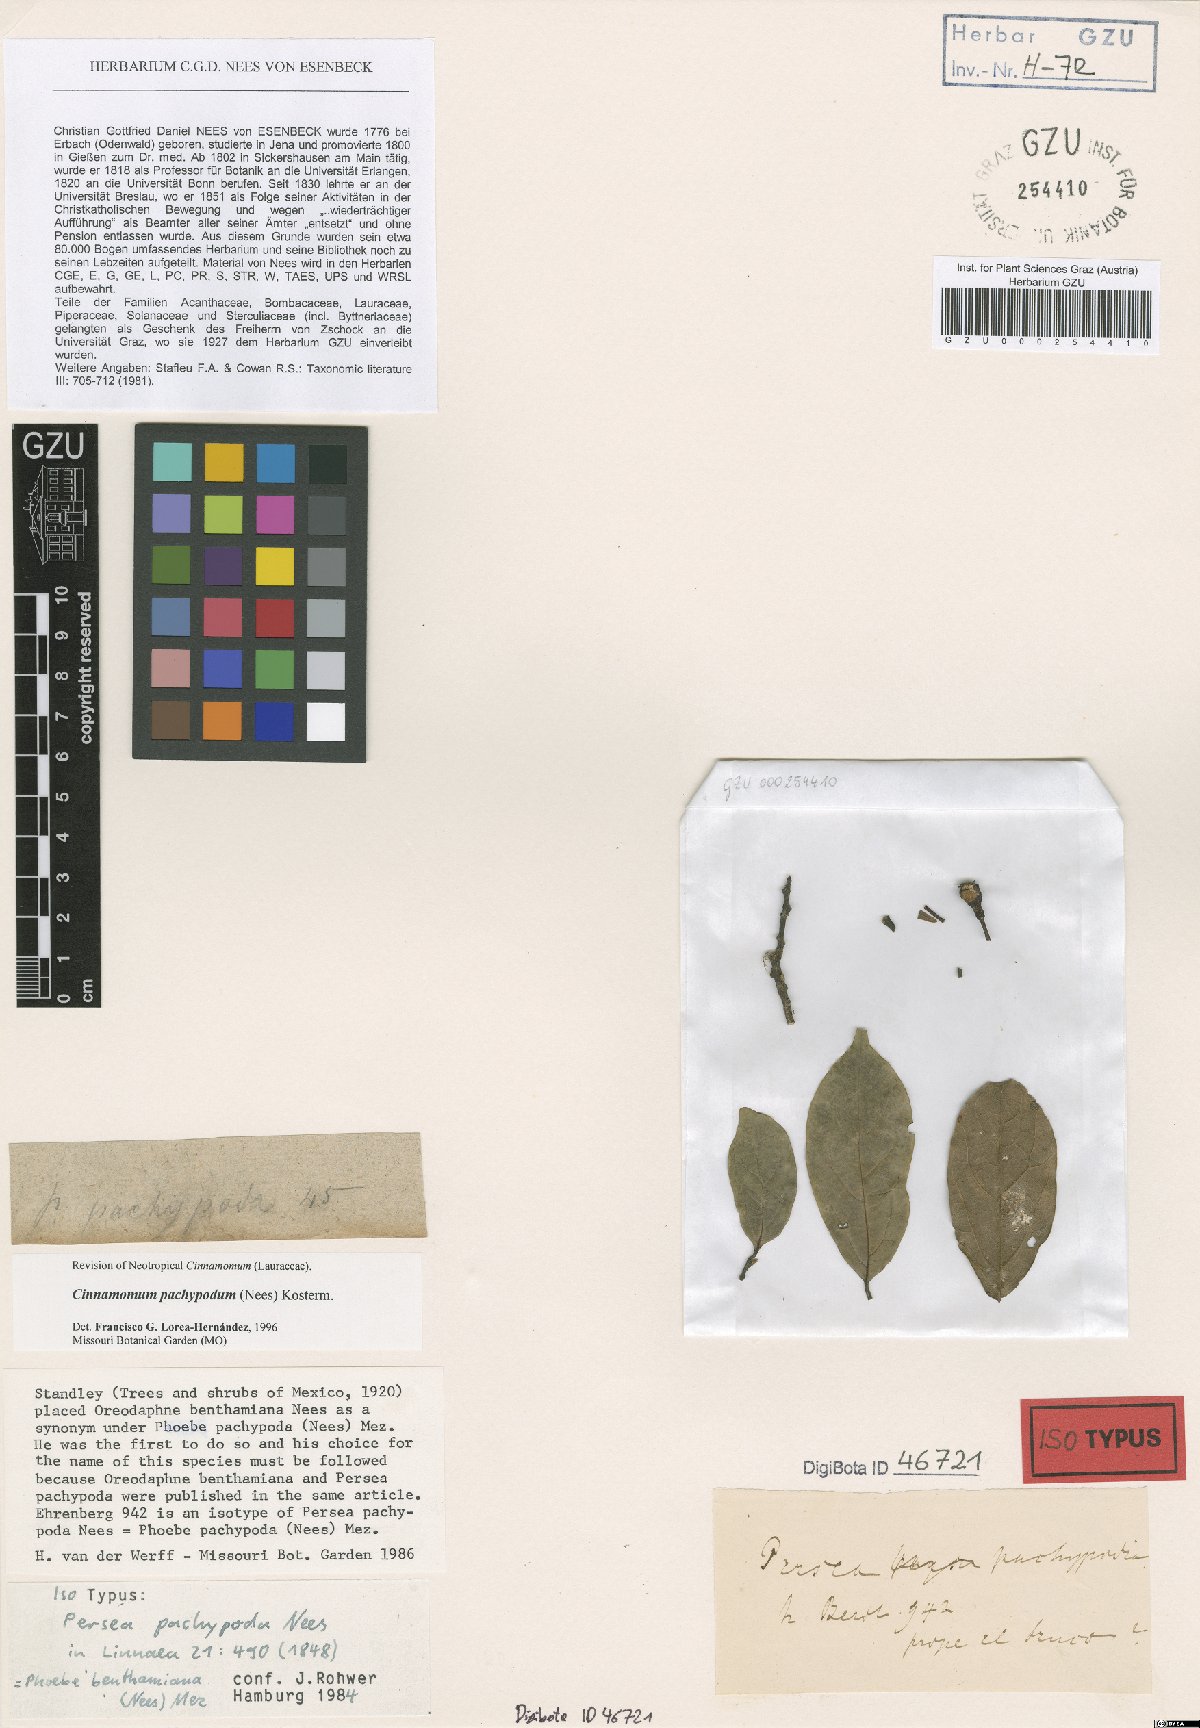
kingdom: Plantae
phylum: Tracheophyta
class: Magnoliopsida
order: Laurales
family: Lauraceae
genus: Aiouea
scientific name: Aiouea pachypoda
